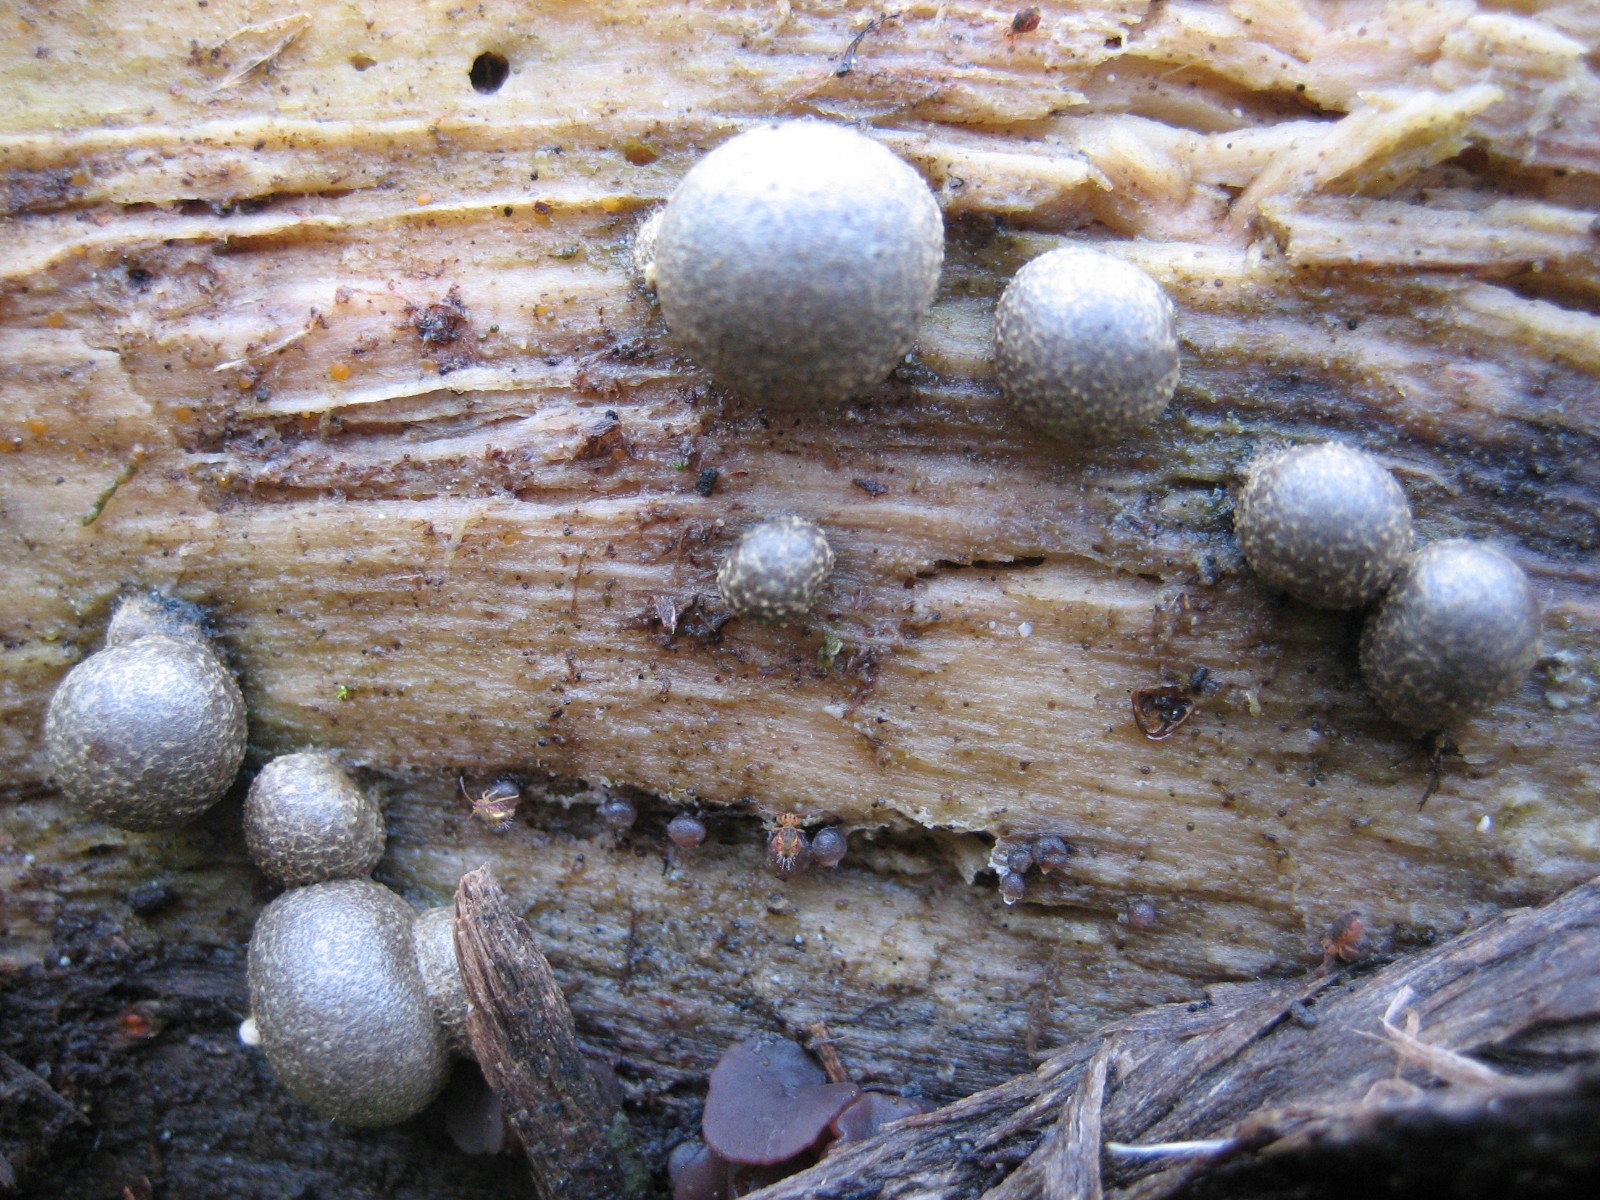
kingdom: Protozoa
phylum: Mycetozoa
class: Myxomycetes
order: Cribrariales
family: Tubiferaceae
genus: Lycogala
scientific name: Lycogala epidendrum
